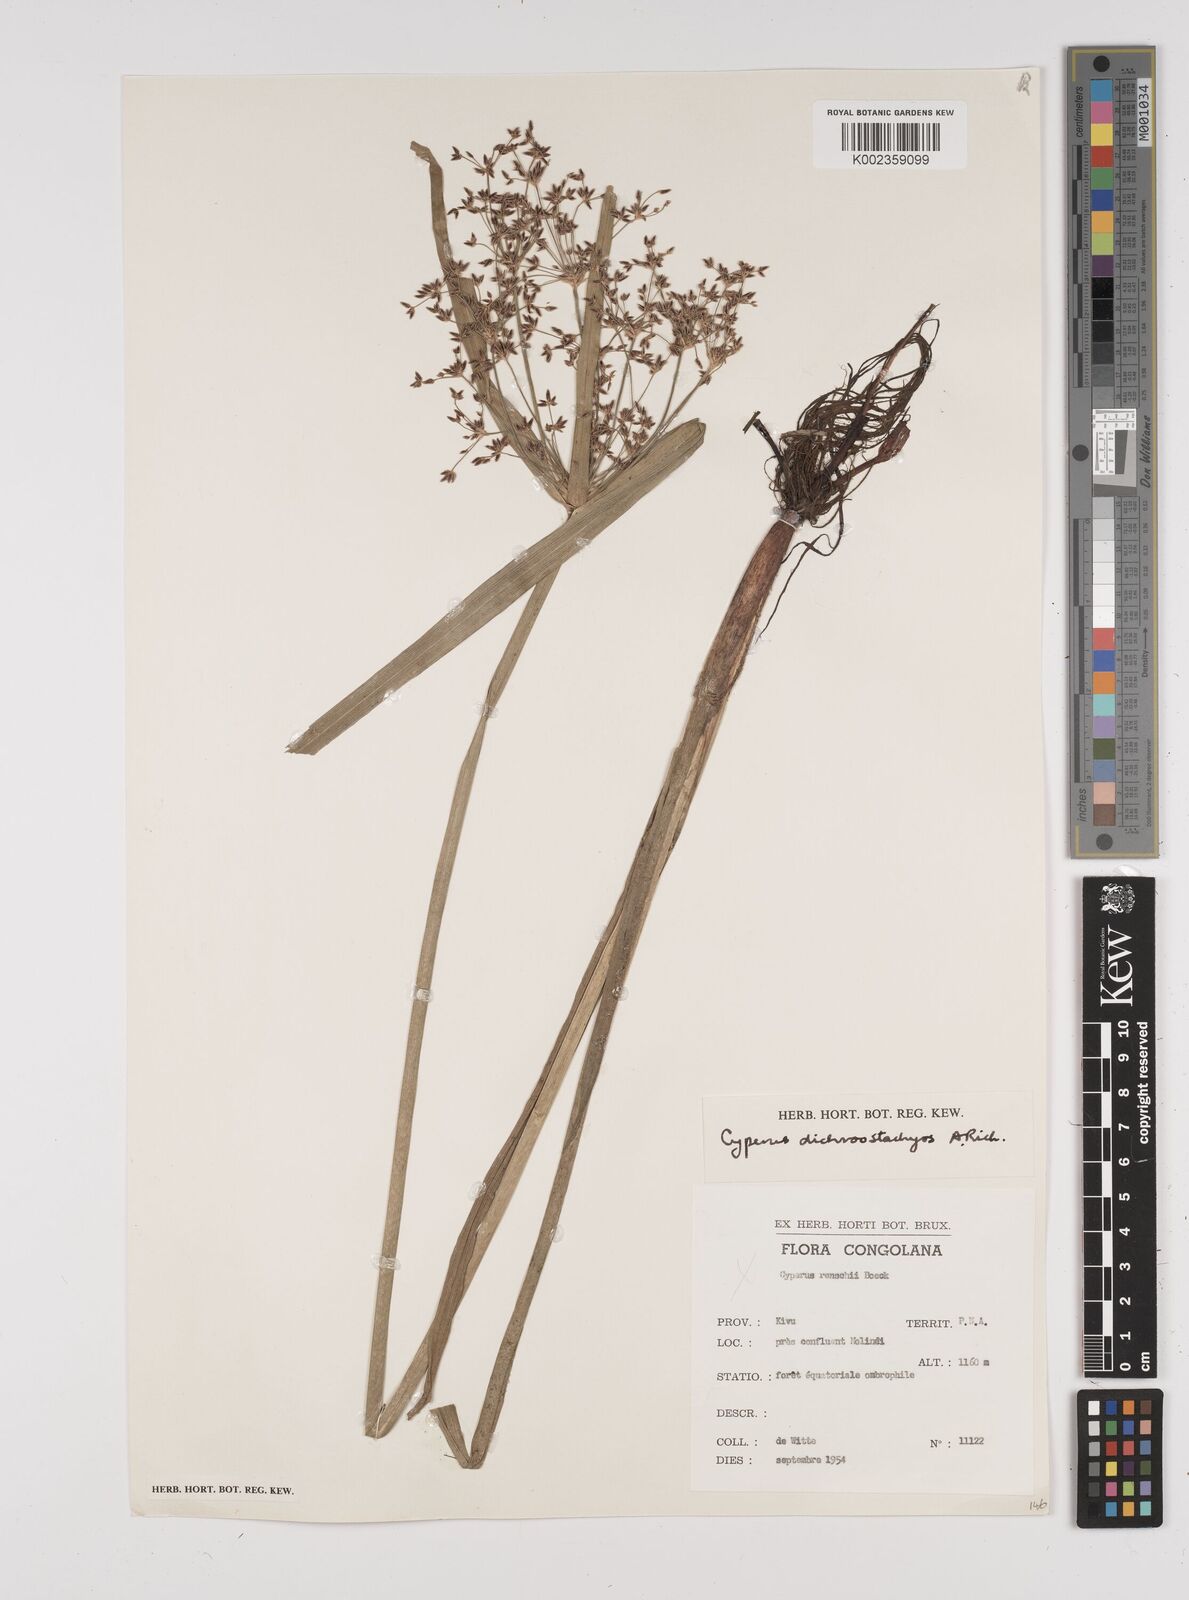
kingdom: Plantae
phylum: Tracheophyta
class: Liliopsida
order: Poales
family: Cyperaceae
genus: Cyperus
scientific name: Cyperus dichrostachyus
